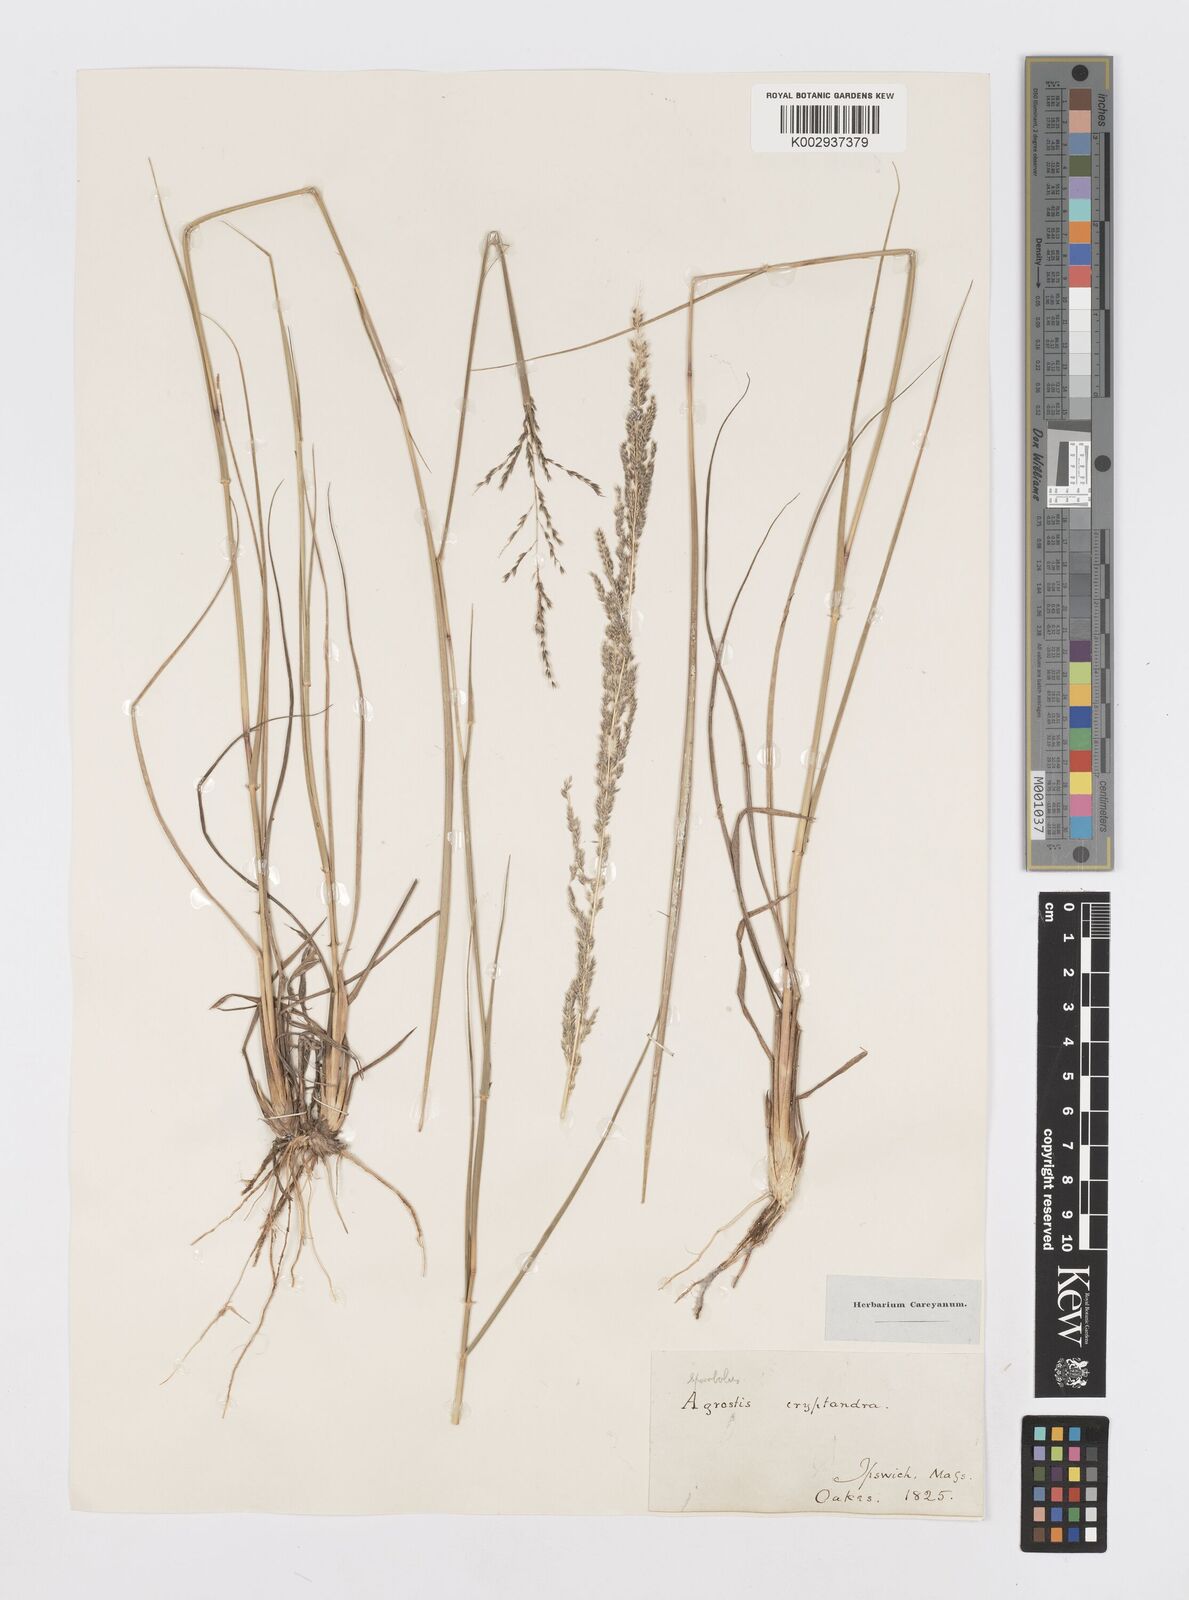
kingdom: Plantae
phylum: Tracheophyta
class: Liliopsida
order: Poales
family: Poaceae
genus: Sporobolus
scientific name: Sporobolus cryptandrus
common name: Sand dropseed
